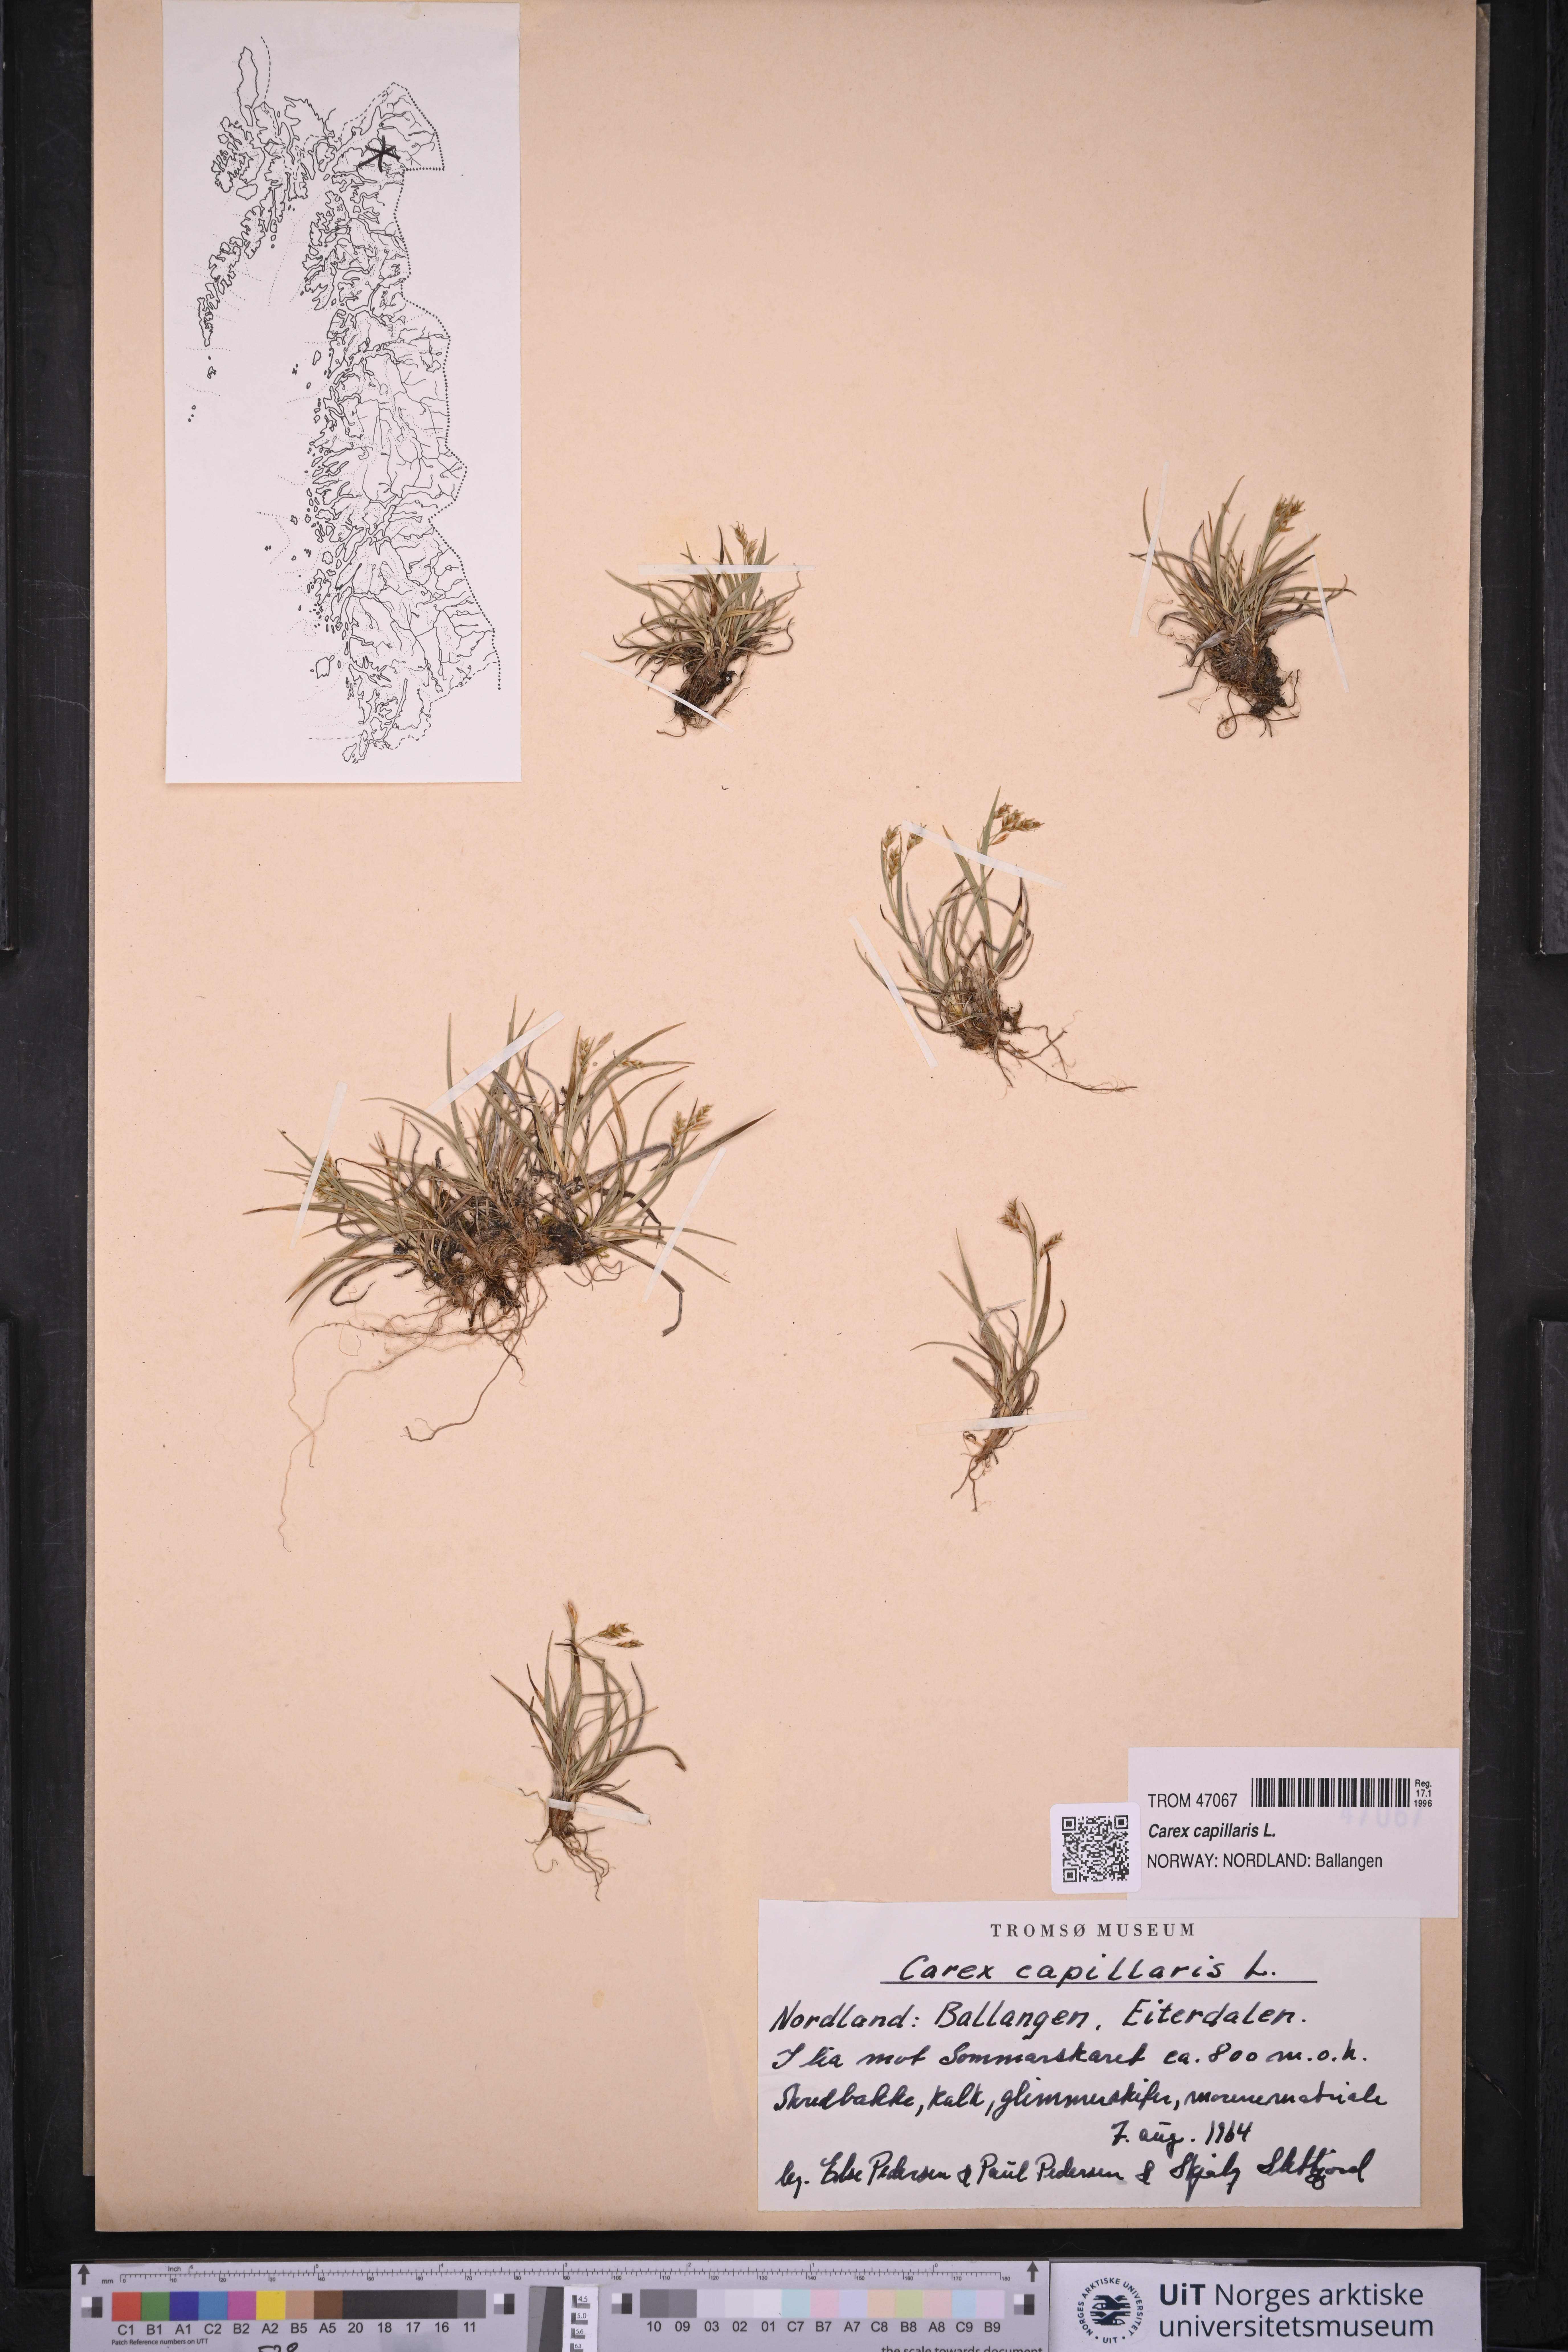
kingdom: Plantae
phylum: Tracheophyta
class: Liliopsida
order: Poales
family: Cyperaceae
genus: Carex
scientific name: Carex capillaris
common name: Hair sedge
